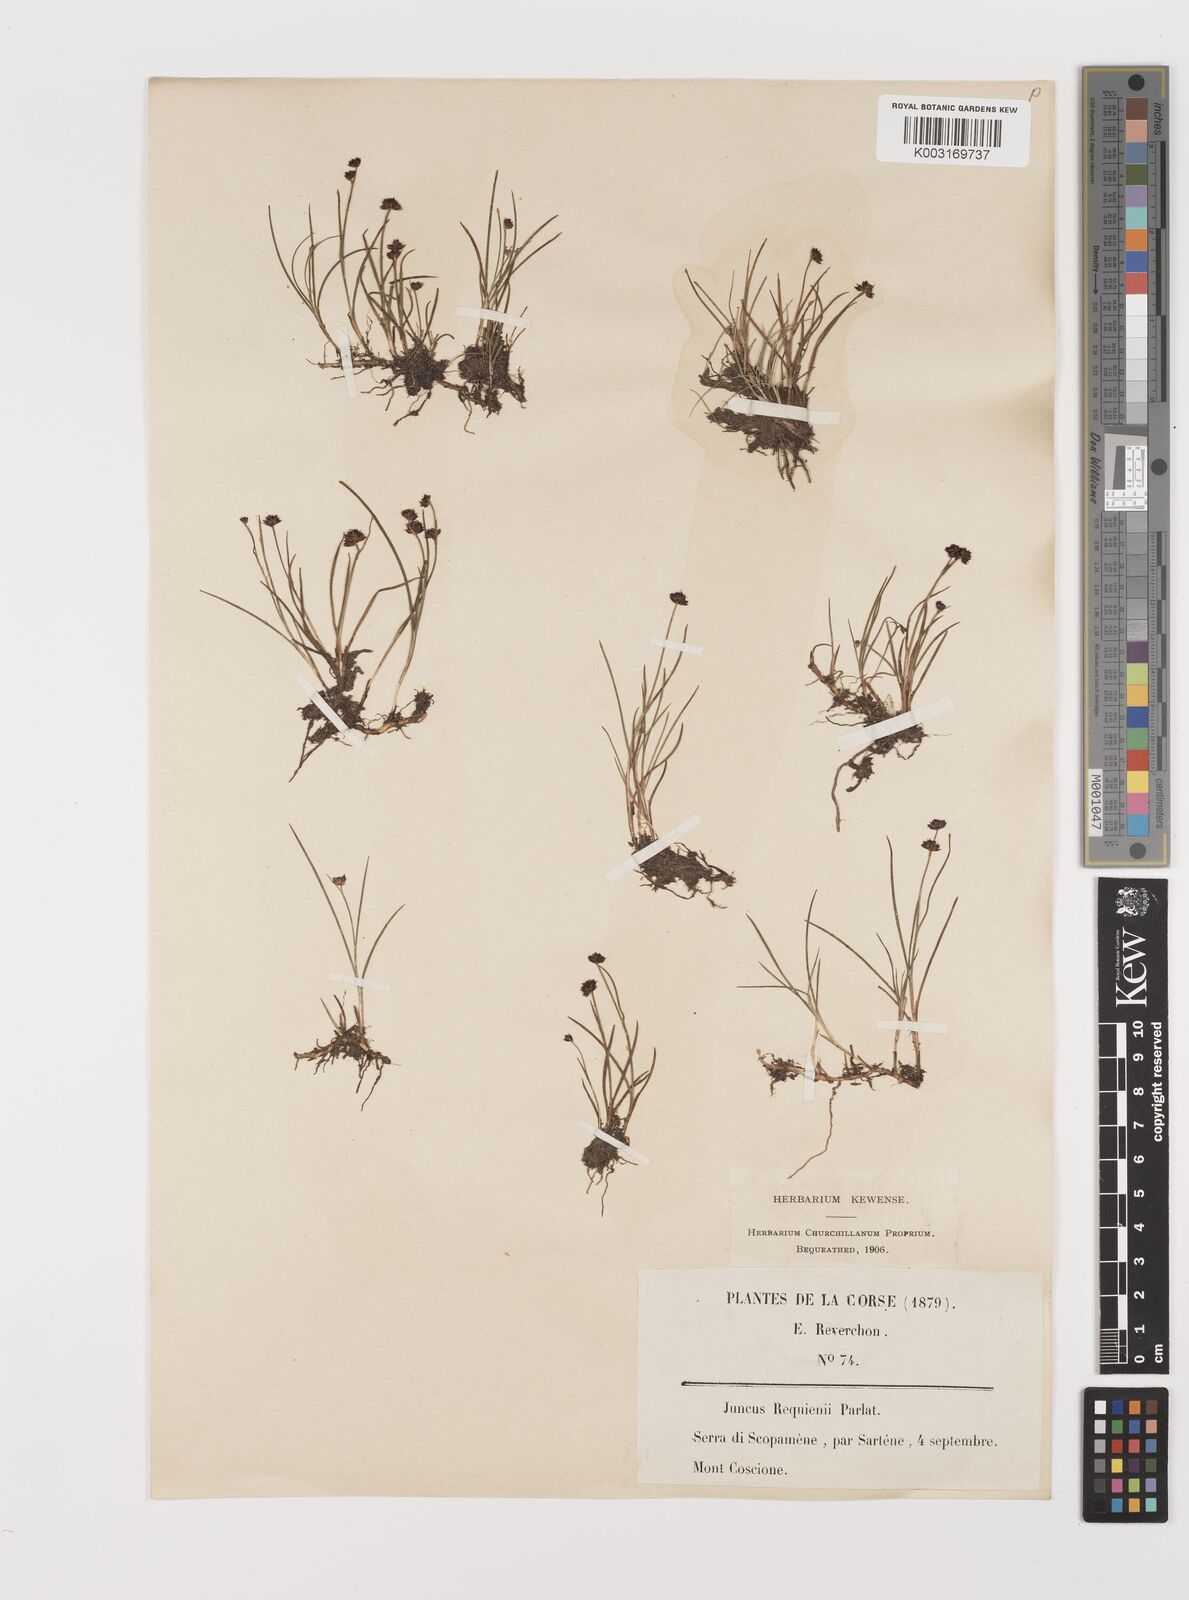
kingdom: Plantae
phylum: Tracheophyta
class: Liliopsida
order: Poales
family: Juncaceae
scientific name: Juncaceae
